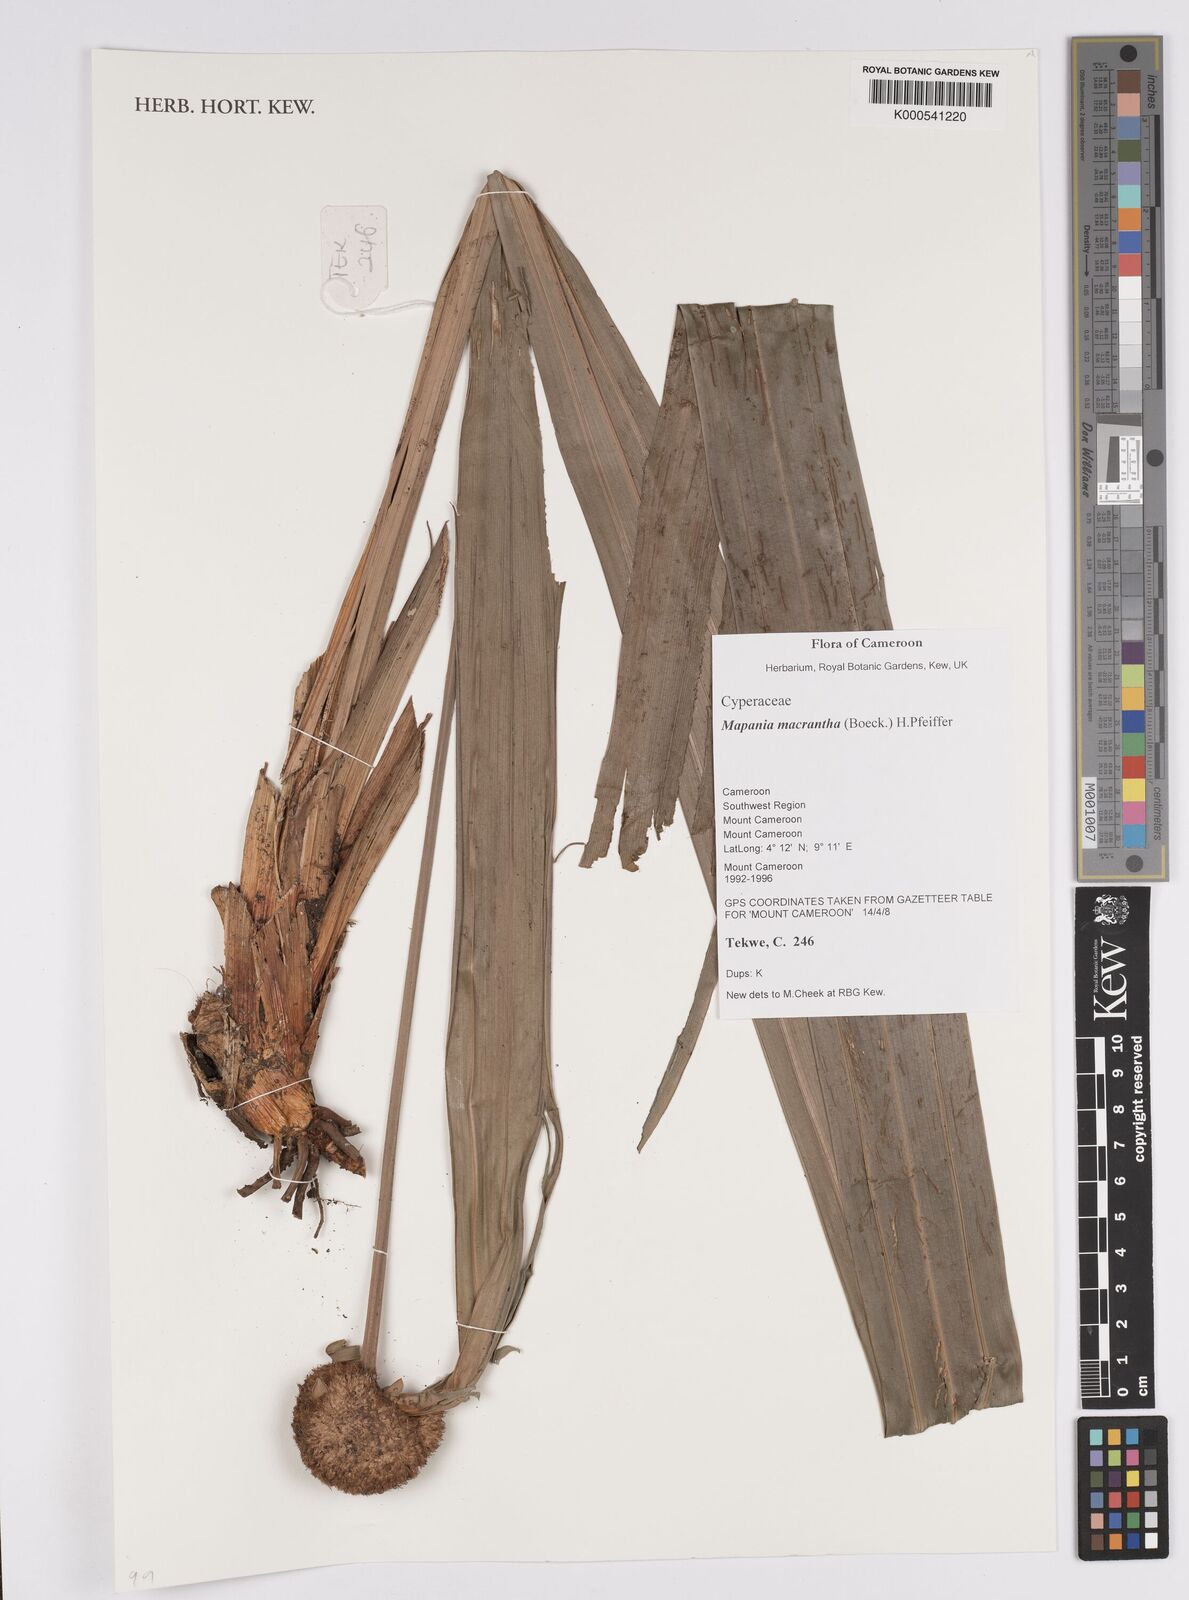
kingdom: Plantae
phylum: Tracheophyta
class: Liliopsida
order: Poales
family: Cyperaceae
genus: Mapania
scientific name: Mapania macrantha
